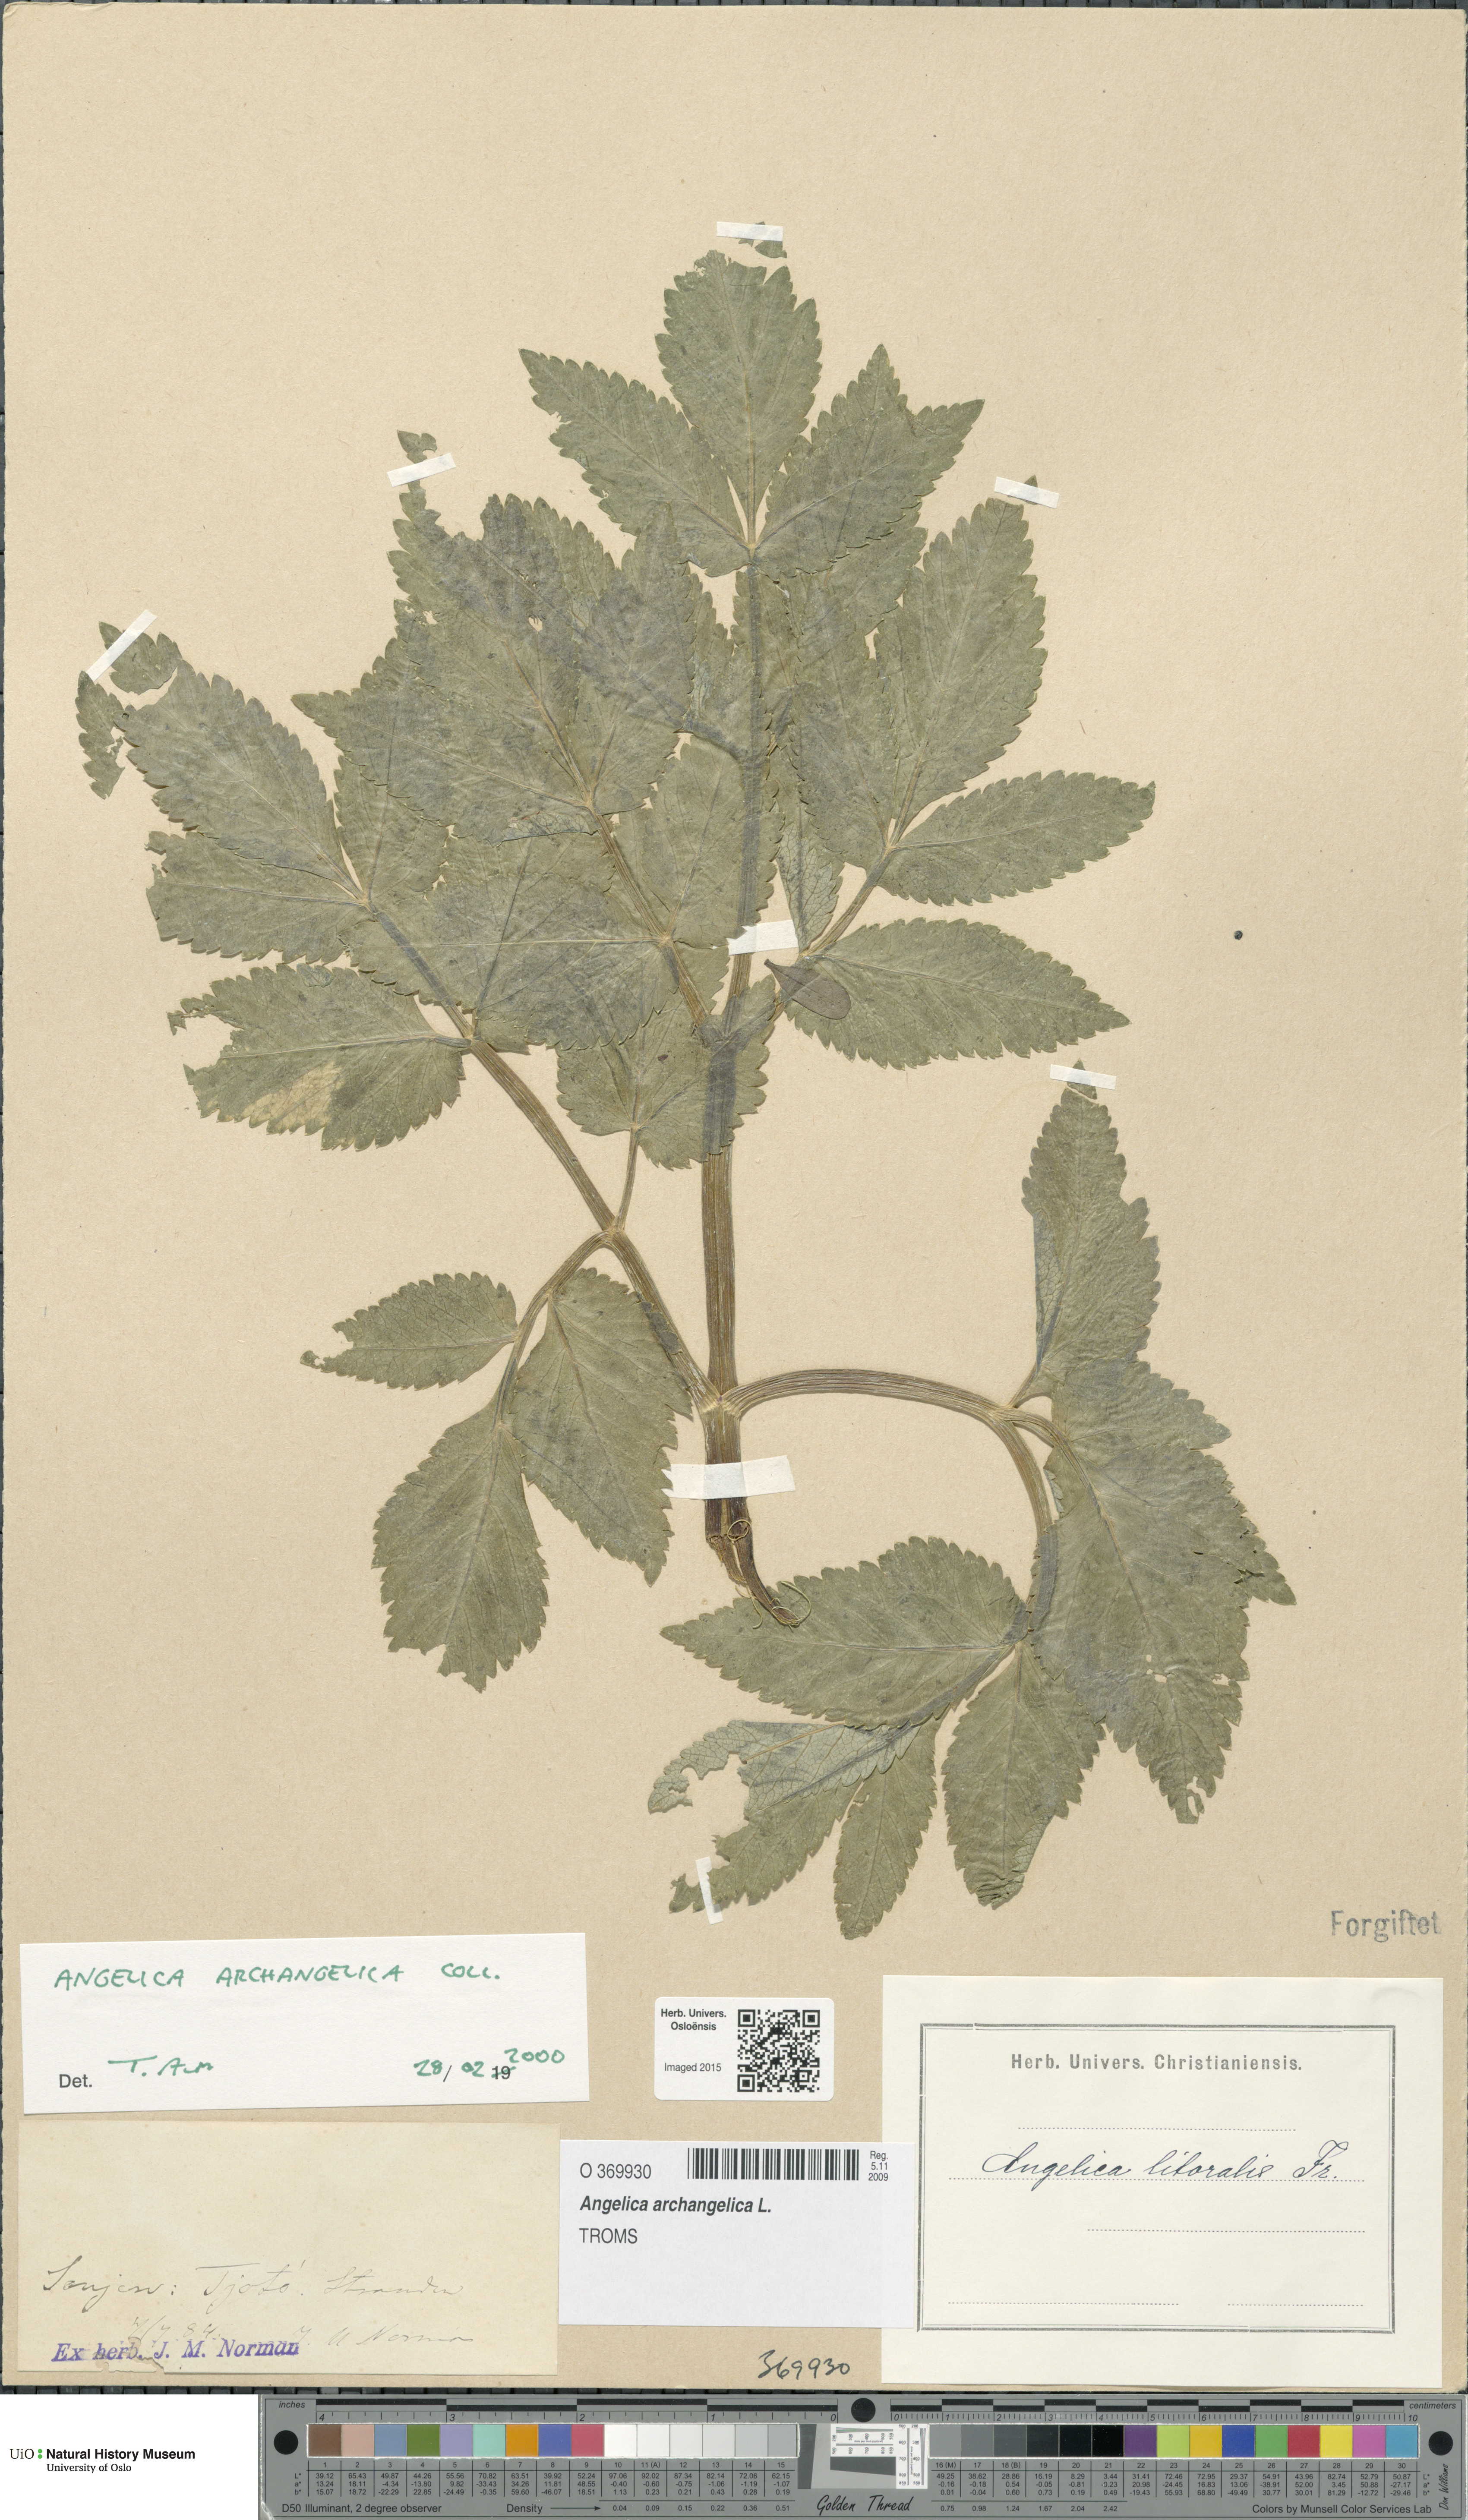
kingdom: Plantae
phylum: Tracheophyta
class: Magnoliopsida
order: Apiales
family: Apiaceae
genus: Angelica
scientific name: Angelica archangelica
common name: Garden angelica
